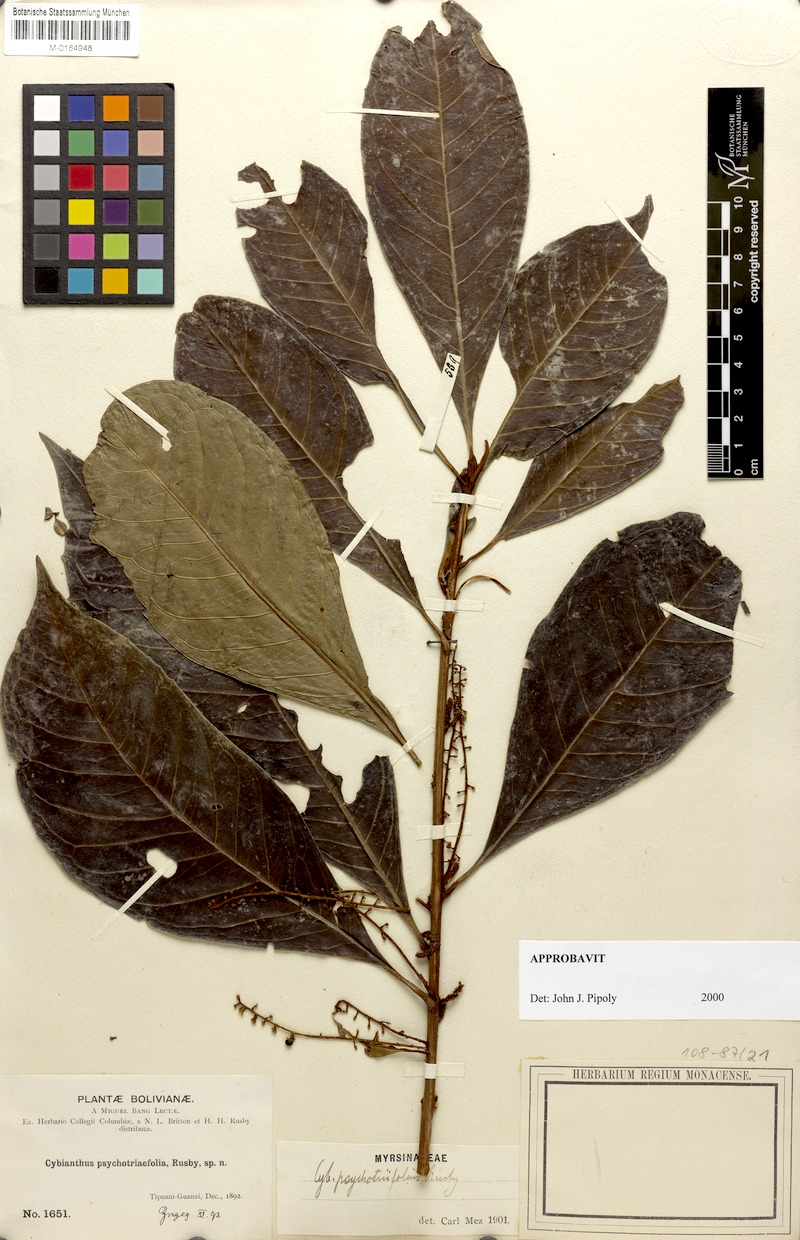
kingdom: Plantae
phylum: Tracheophyta
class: Magnoliopsida
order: Ericales
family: Primulaceae
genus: Cybianthus
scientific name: Cybianthus psychotriifolius
